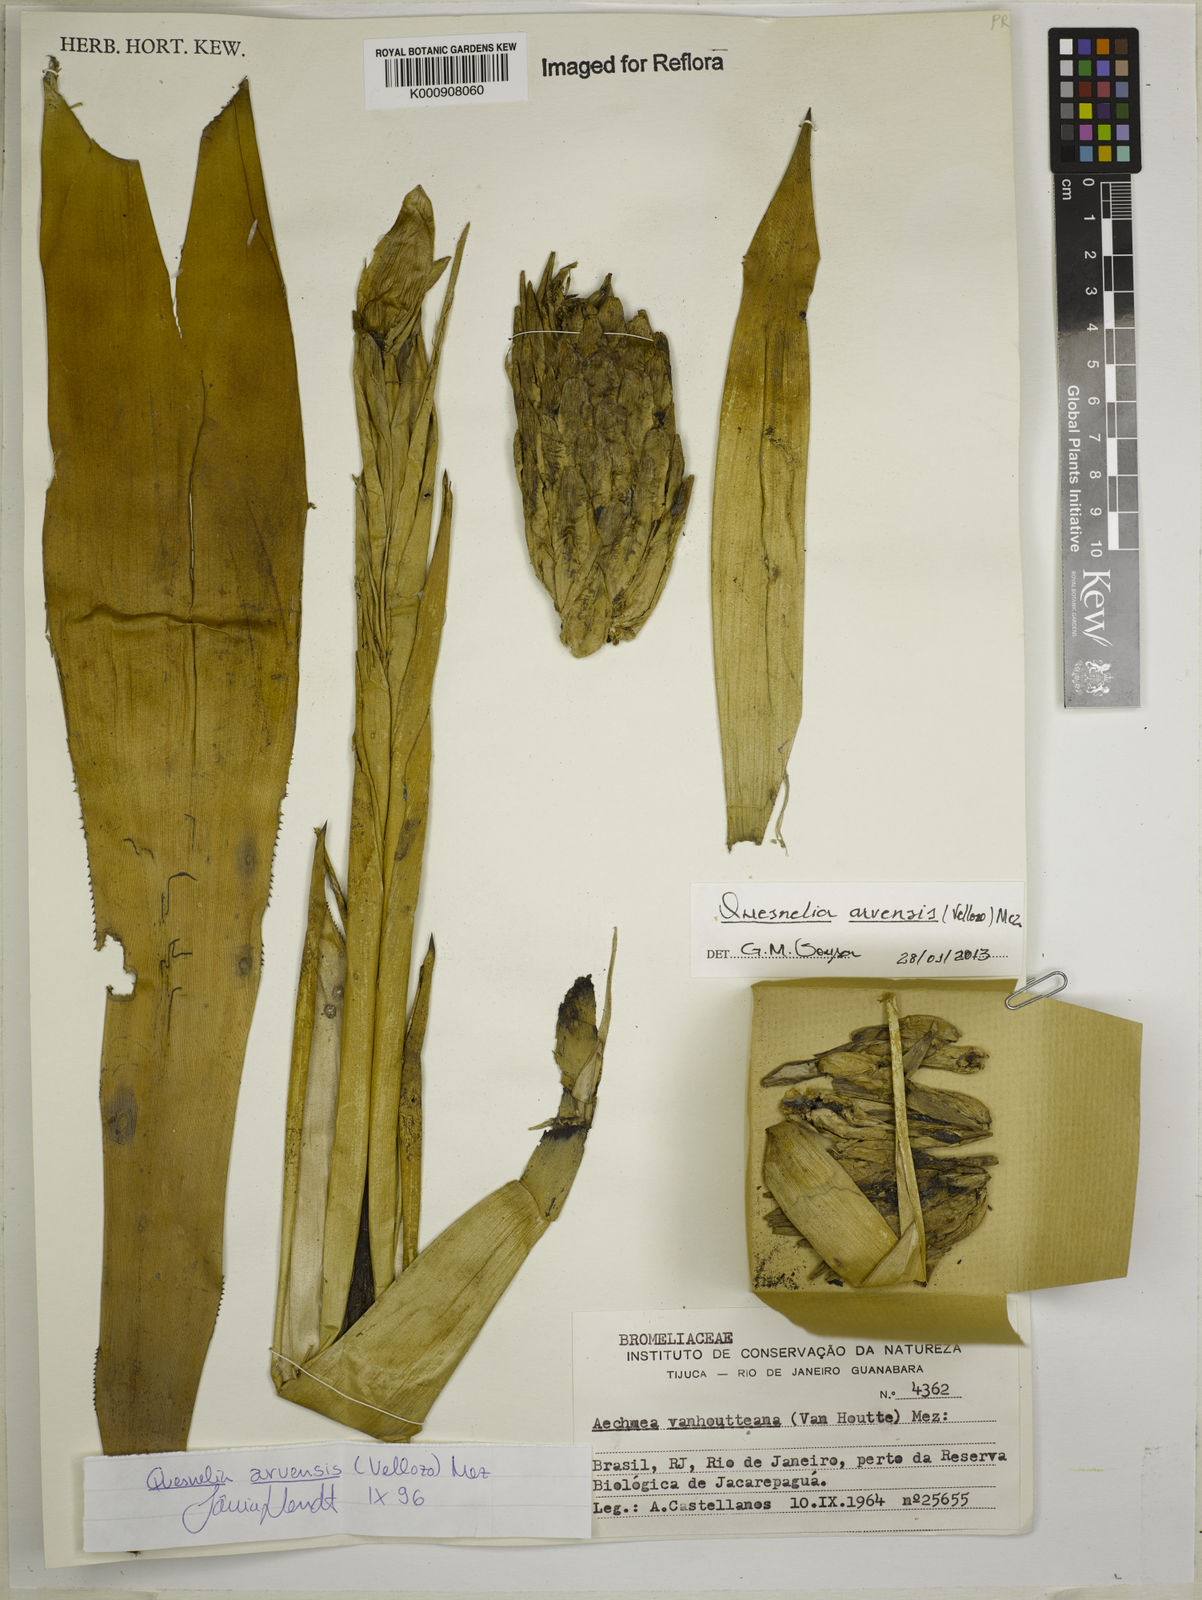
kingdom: Plantae
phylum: Tracheophyta
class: Liliopsida
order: Poales
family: Bromeliaceae
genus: Aechmea
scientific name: Aechmea vanhoutteana
